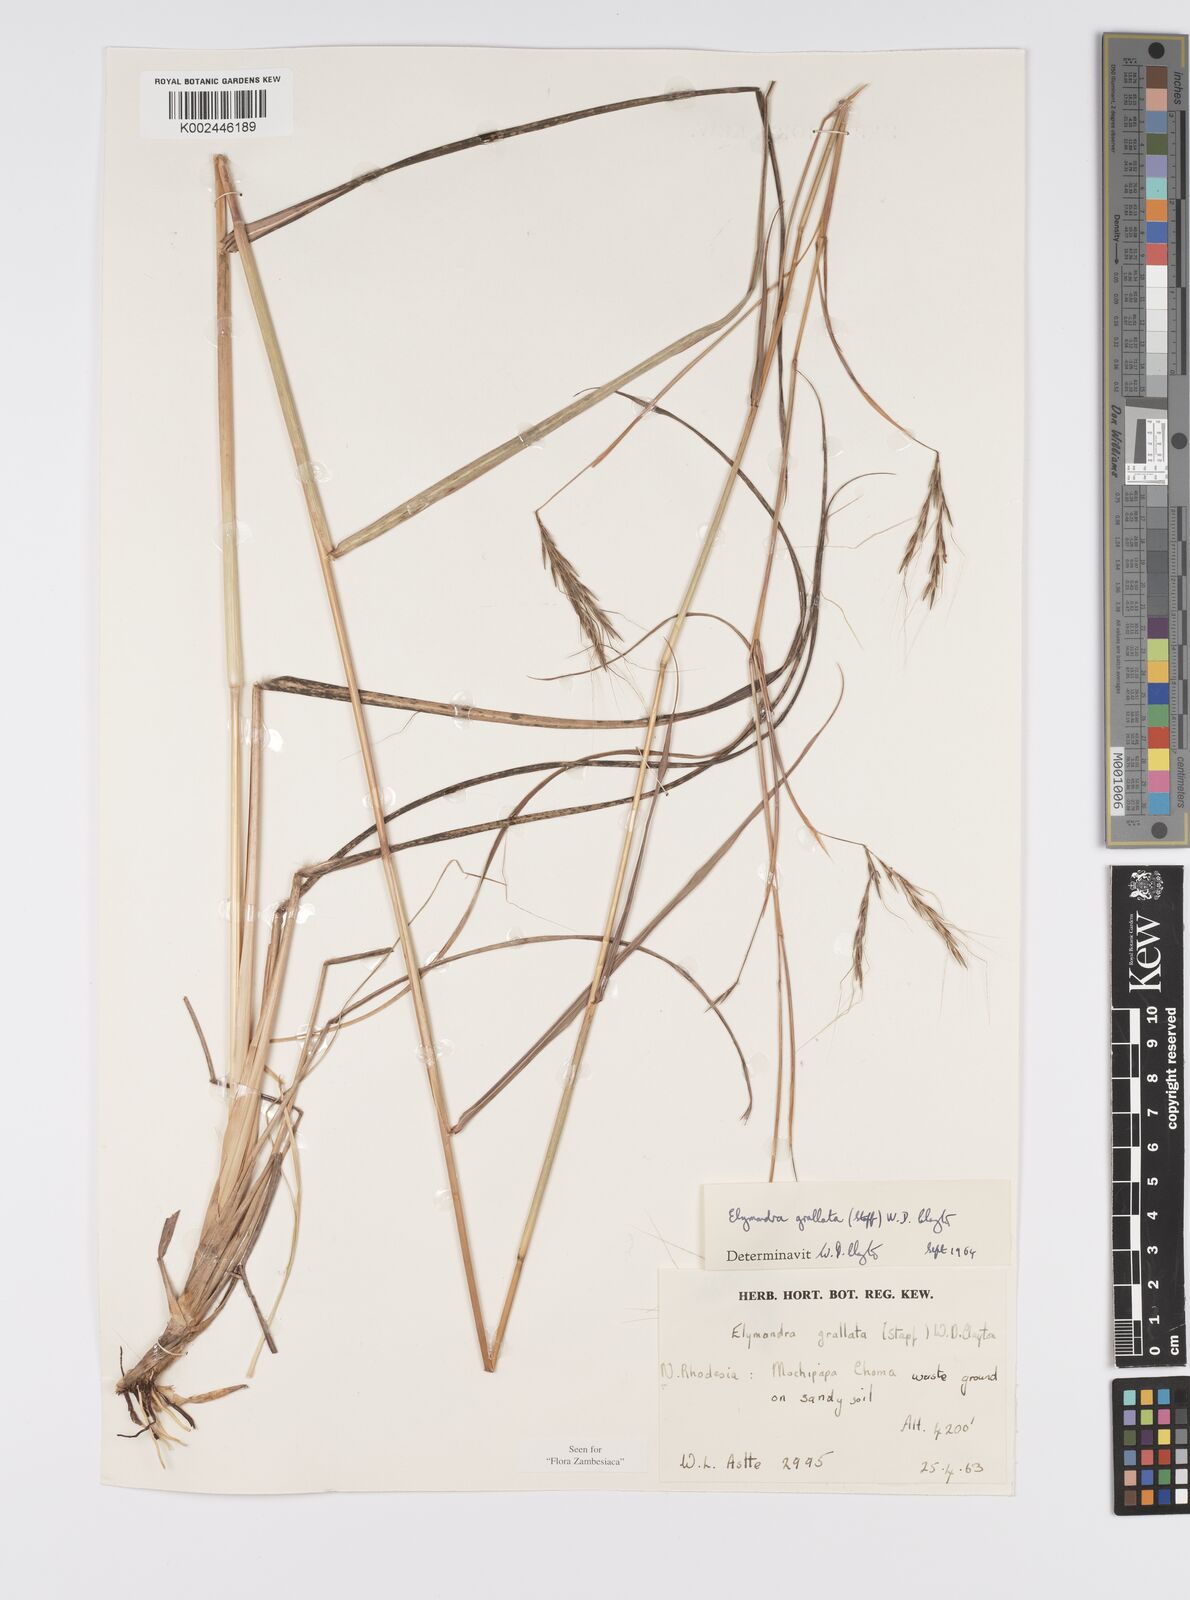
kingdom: Plantae
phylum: Tracheophyta
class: Liliopsida
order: Poales
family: Poaceae
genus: Elymandra
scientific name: Elymandra grallata
